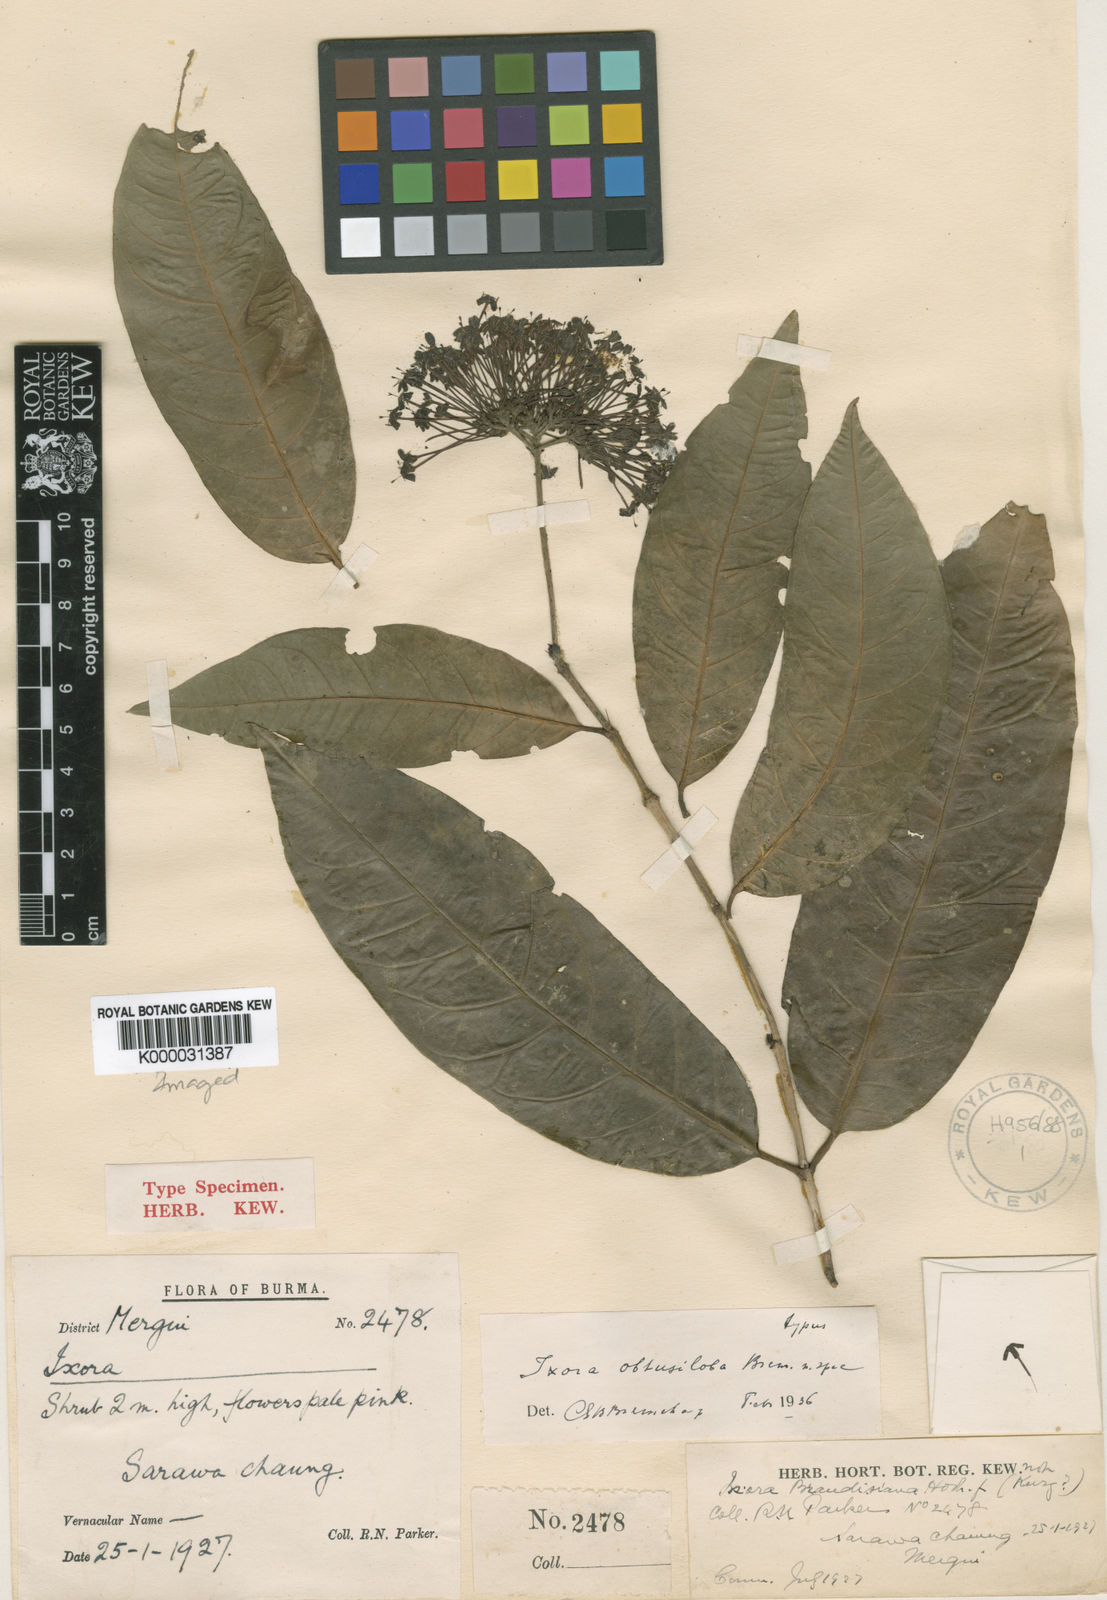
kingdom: Plantae
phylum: Tracheophyta
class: Magnoliopsida
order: Gentianales
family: Rubiaceae
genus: Ixora
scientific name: Ixora obtusiloba
